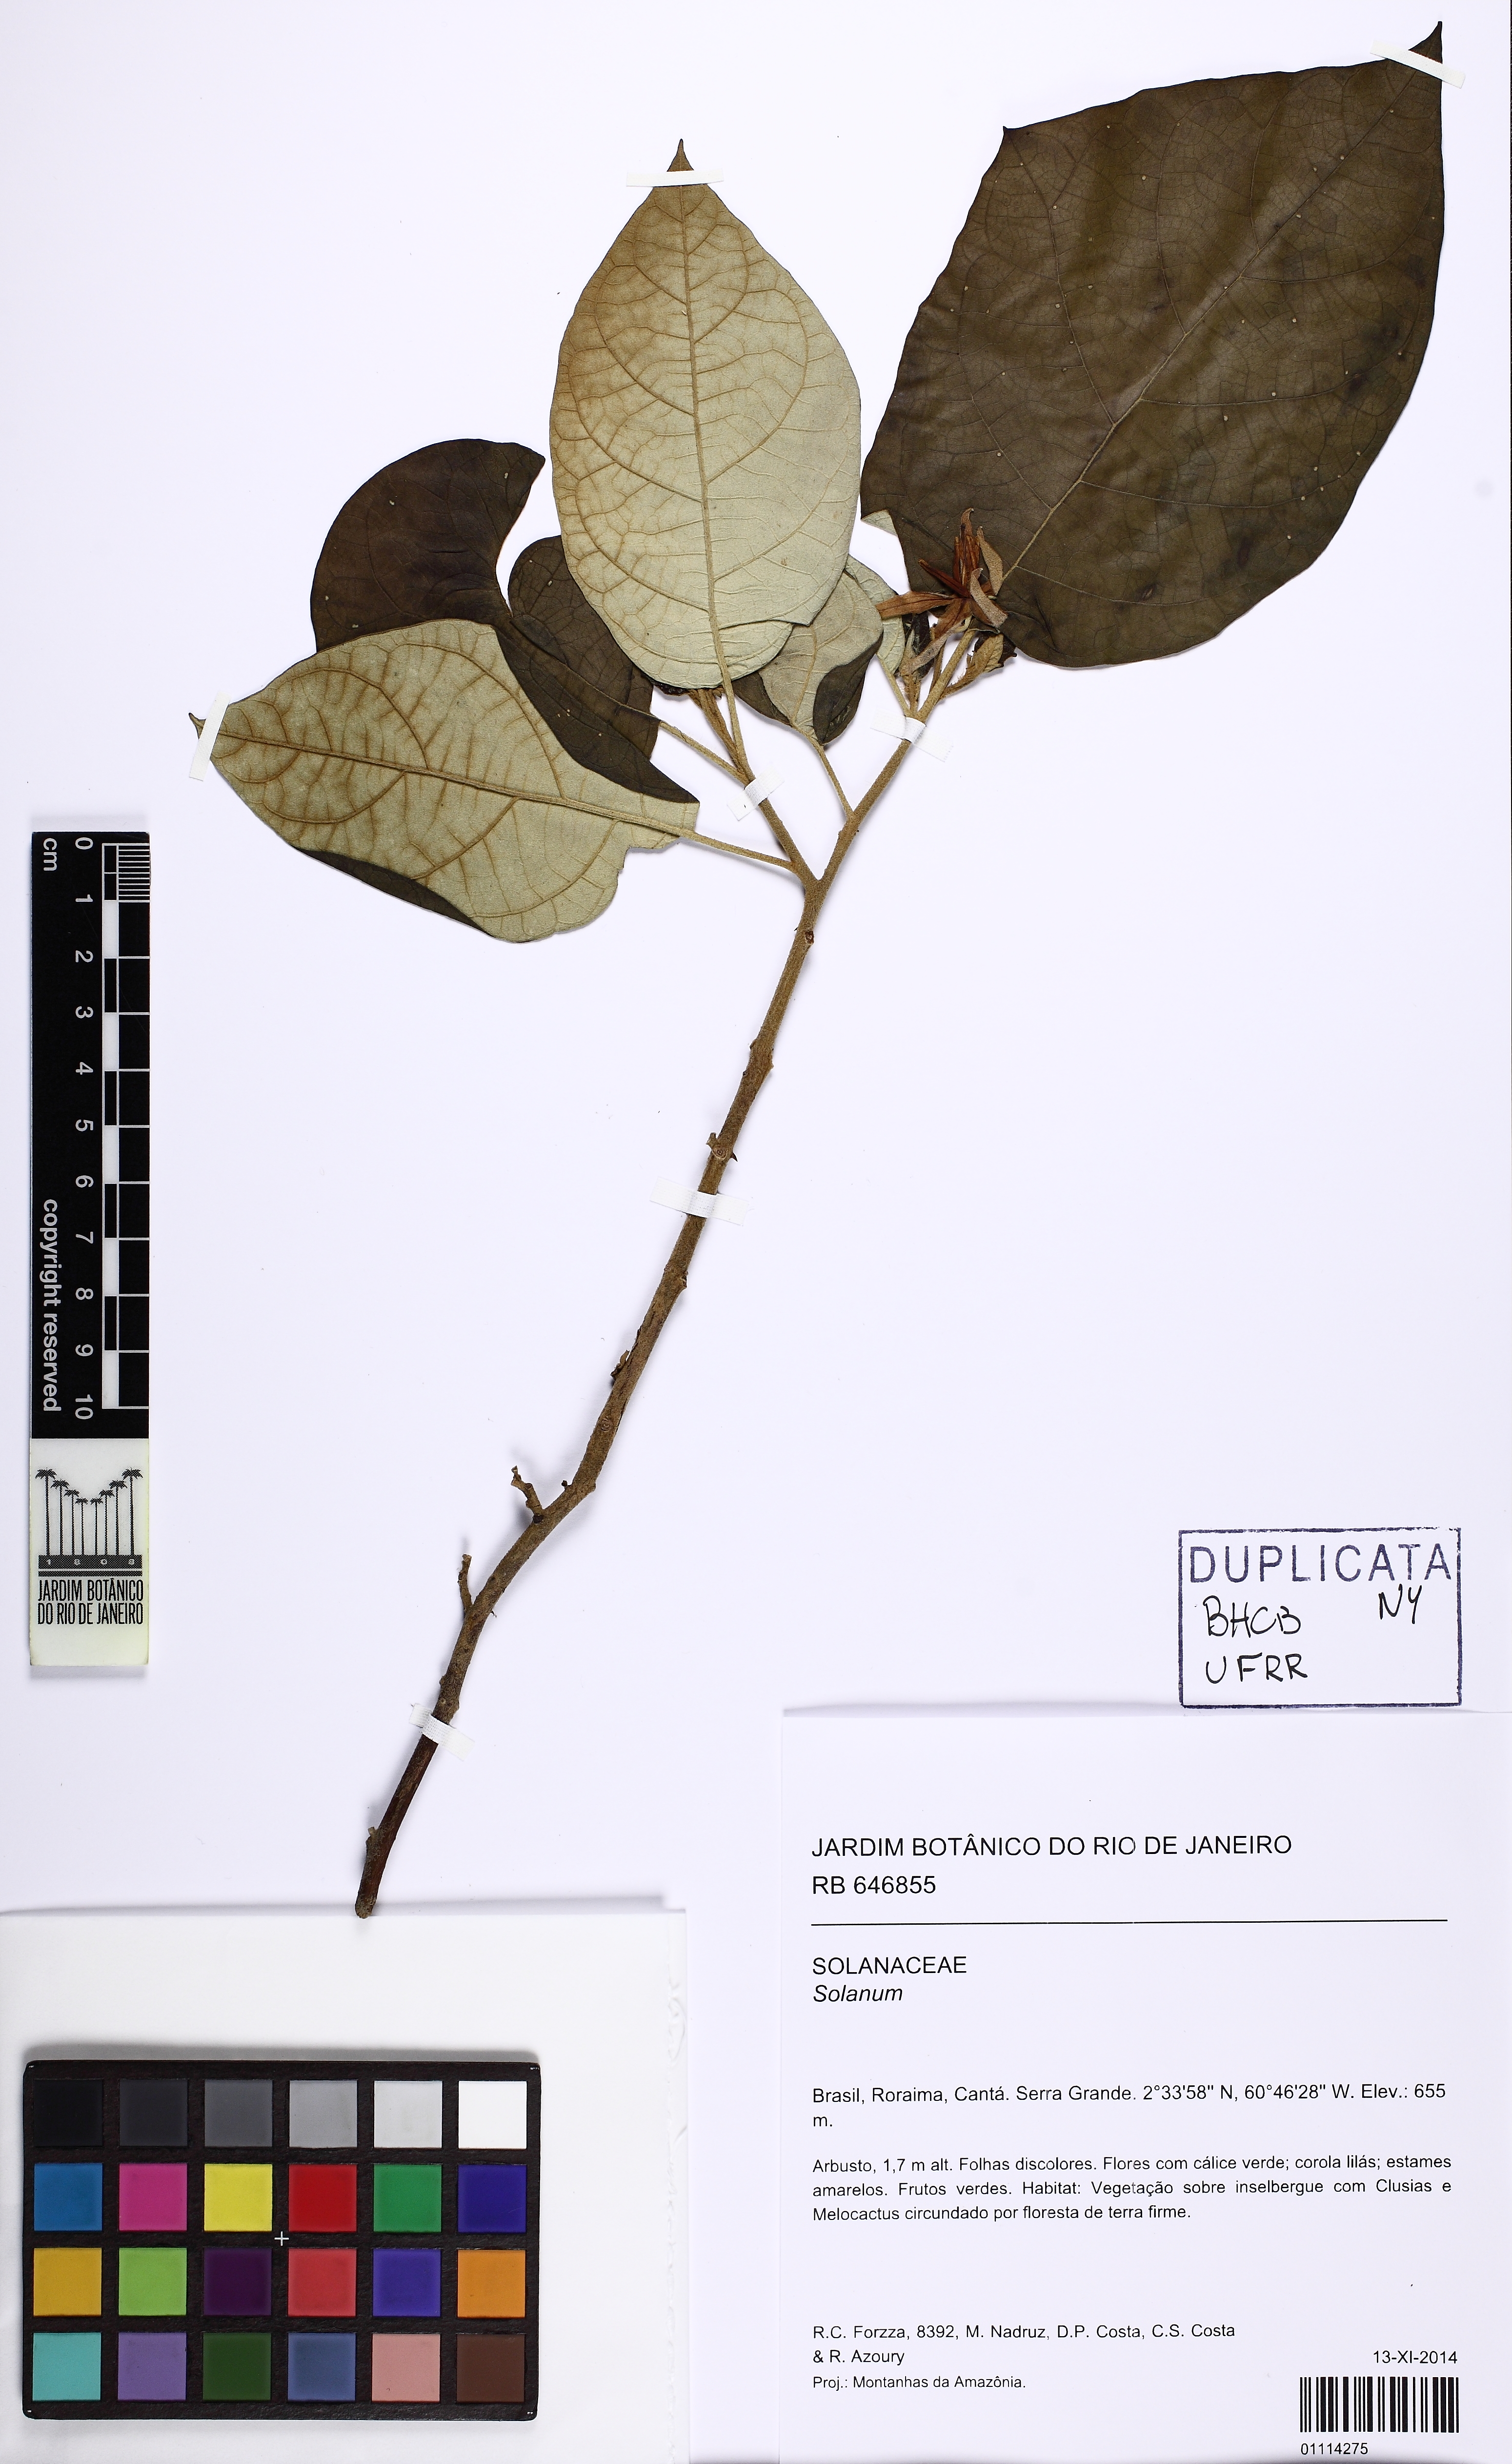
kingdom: Plantae
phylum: Tracheophyta
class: Magnoliopsida
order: Solanales
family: Solanaceae
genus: Solanum
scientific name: Solanum paludosum
